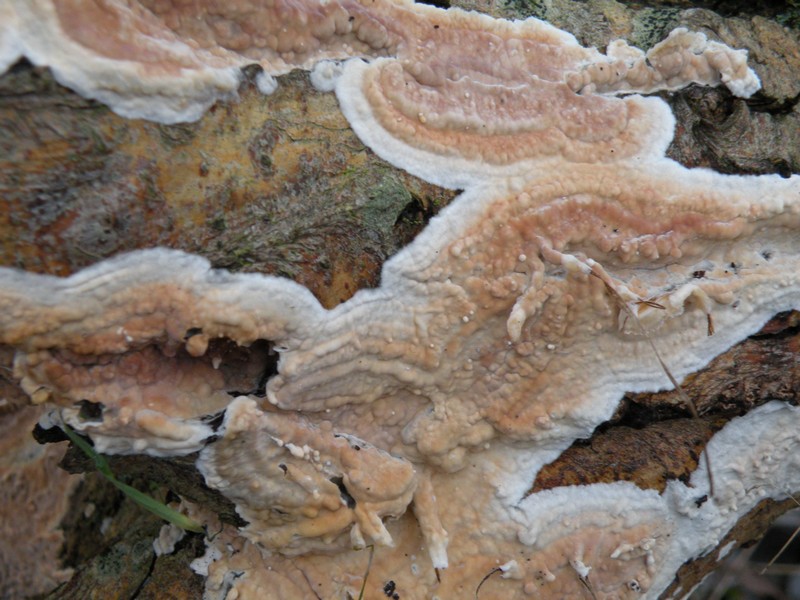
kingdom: Fungi
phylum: Basidiomycota
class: Agaricomycetes
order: Agaricales
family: Physalacriaceae
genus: Cylindrobasidium
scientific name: Cylindrobasidium evolvens
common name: sprækkehinde
